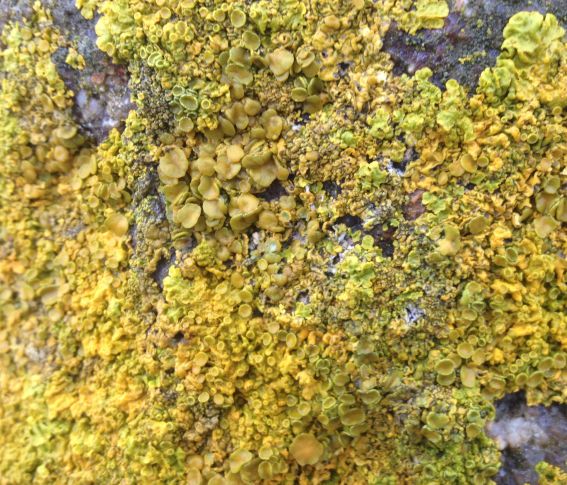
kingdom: Fungi
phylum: Ascomycota
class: Lecanoromycetes
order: Teloschistales
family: Teloschistaceae
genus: Xanthoria
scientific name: Xanthoria parietina
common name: almindelig væggelav
